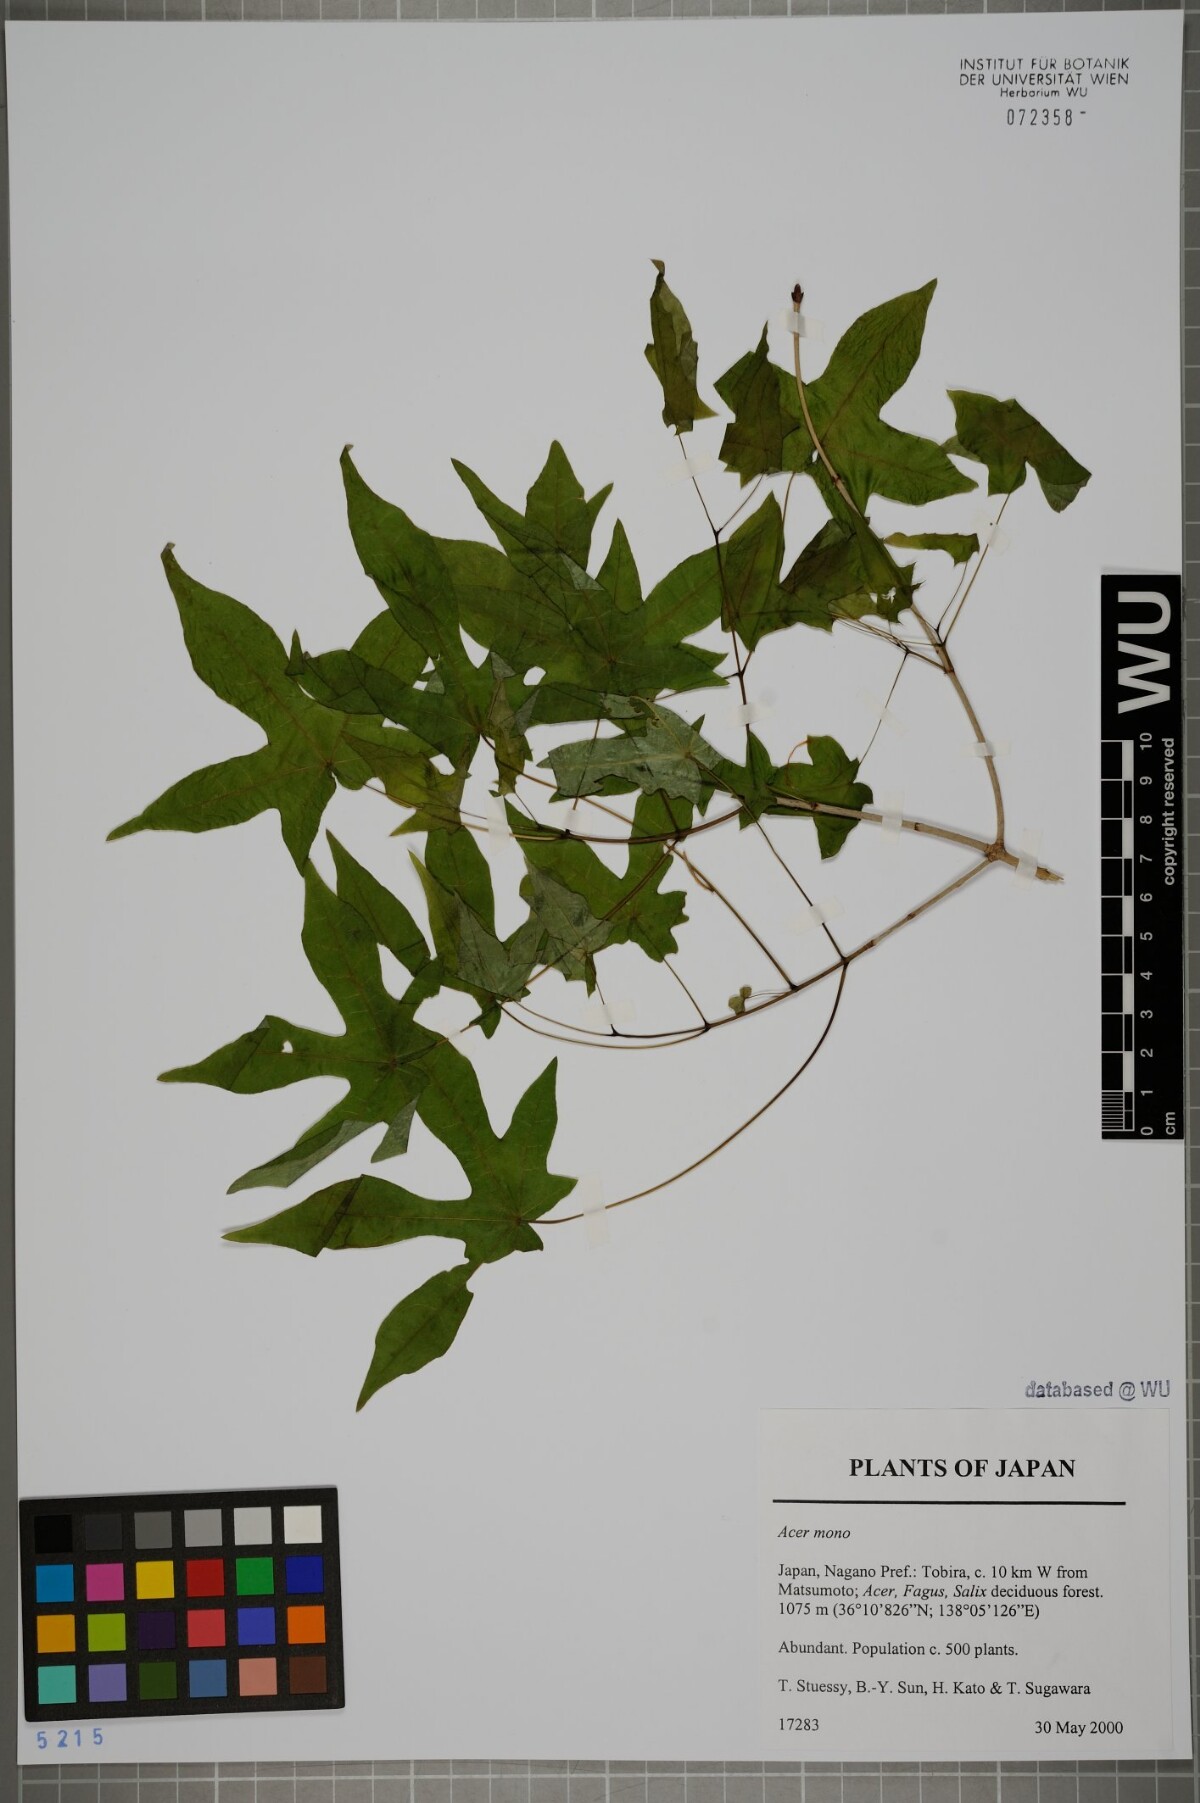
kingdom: Plantae
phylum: Tracheophyta
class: Magnoliopsida
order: Sapindales
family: Sapindaceae
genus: Acer
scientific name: Acer pictum
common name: The painted maple
